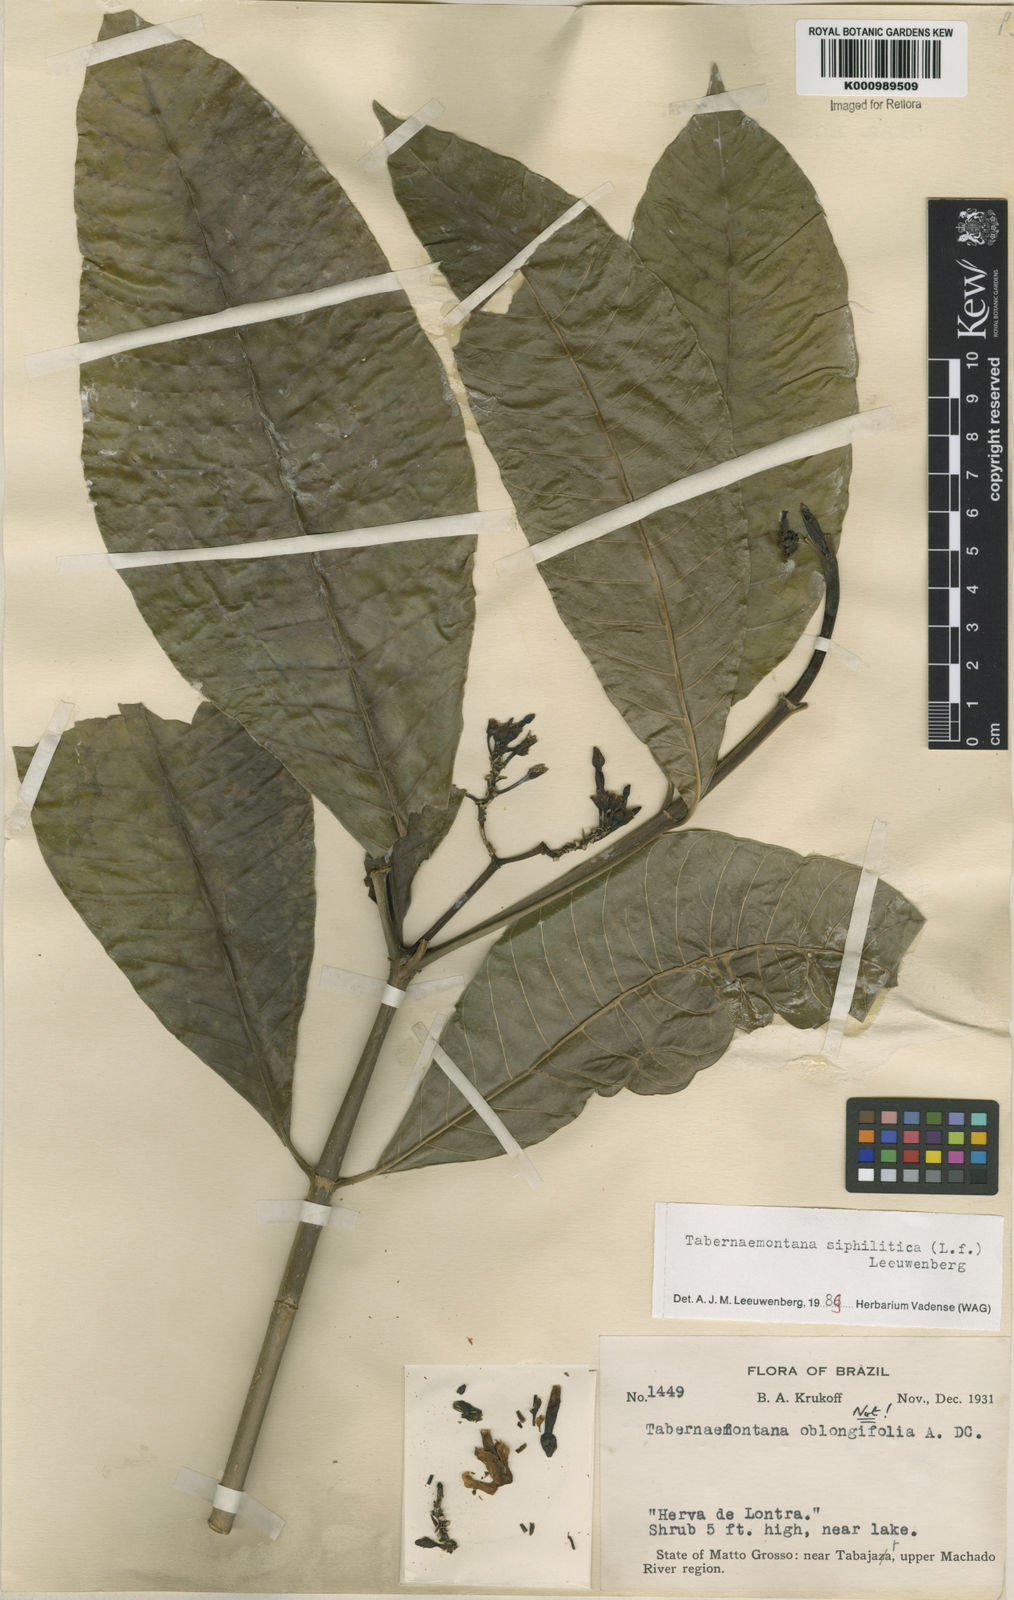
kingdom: Plantae
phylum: Tracheophyta
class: Magnoliopsida
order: Gentianales
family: Apocynaceae
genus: Tabernaemontana
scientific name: Tabernaemontana siphilitica
